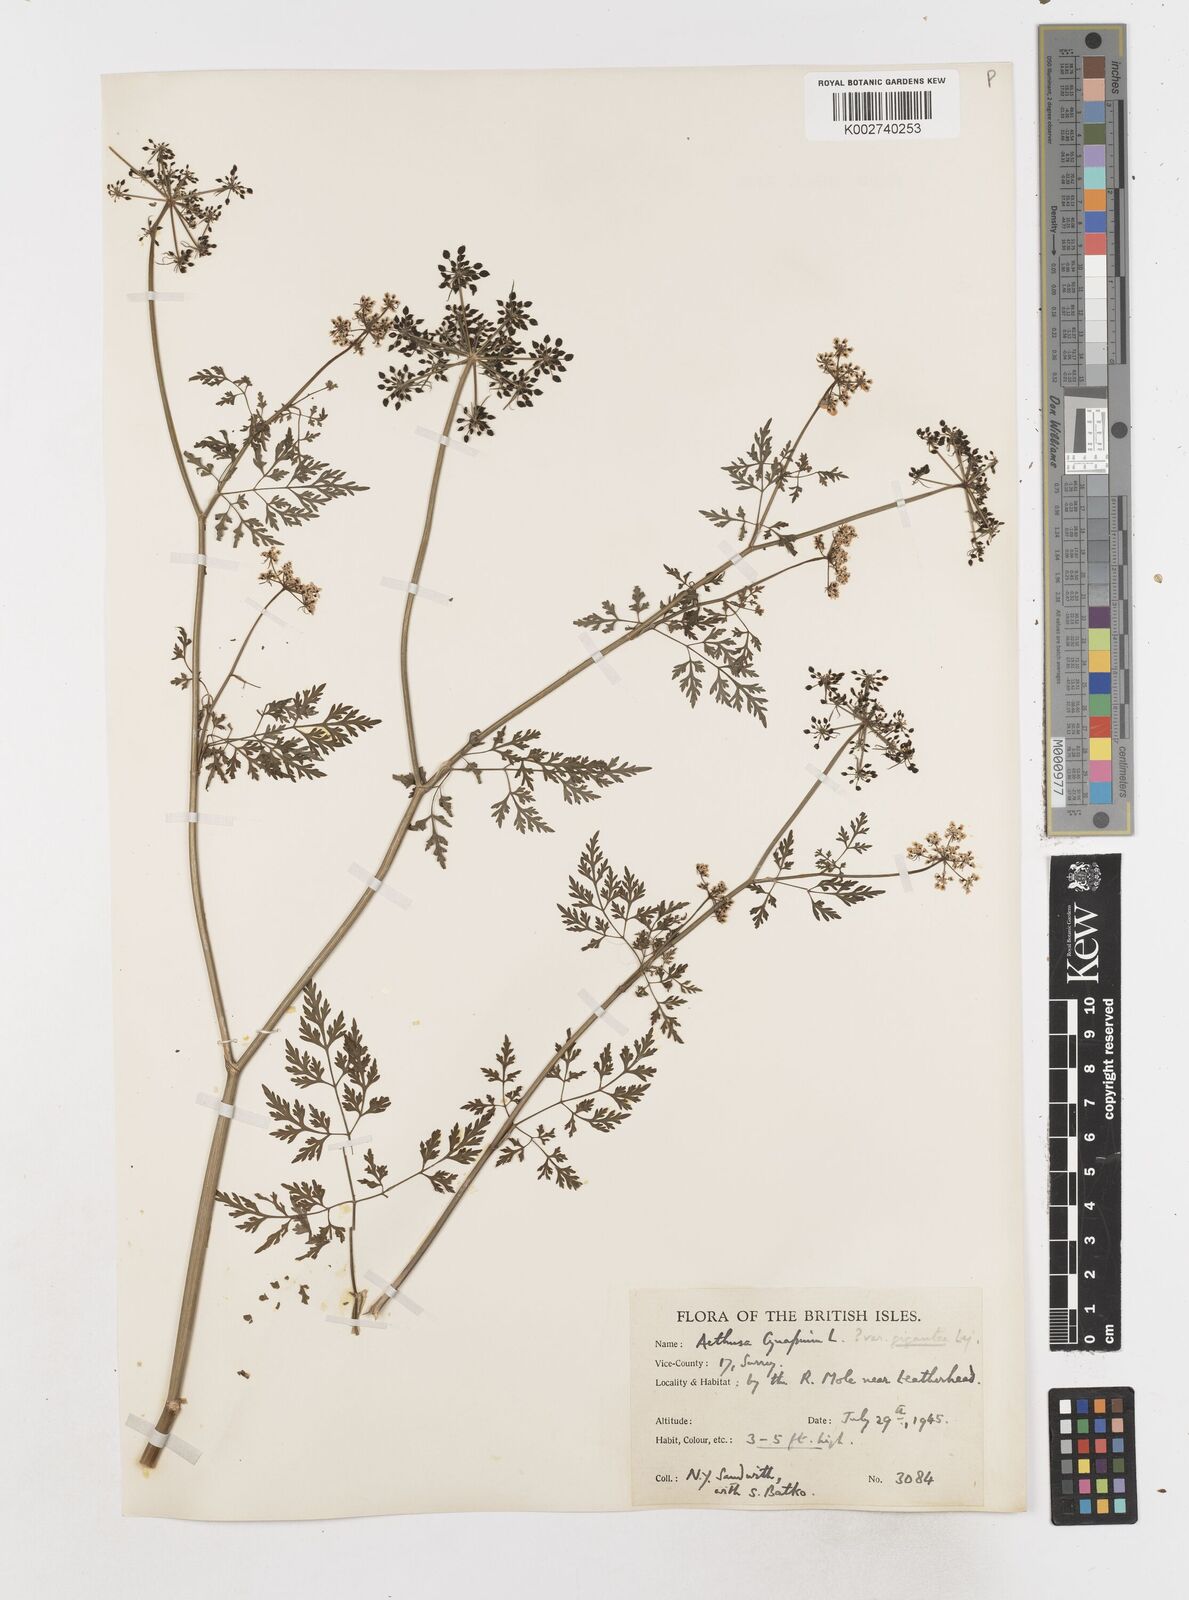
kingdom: Plantae
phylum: Tracheophyta
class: Magnoliopsida
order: Apiales
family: Apiaceae
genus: Aethusa
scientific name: Aethusa cynapium
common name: Fool's parsley
